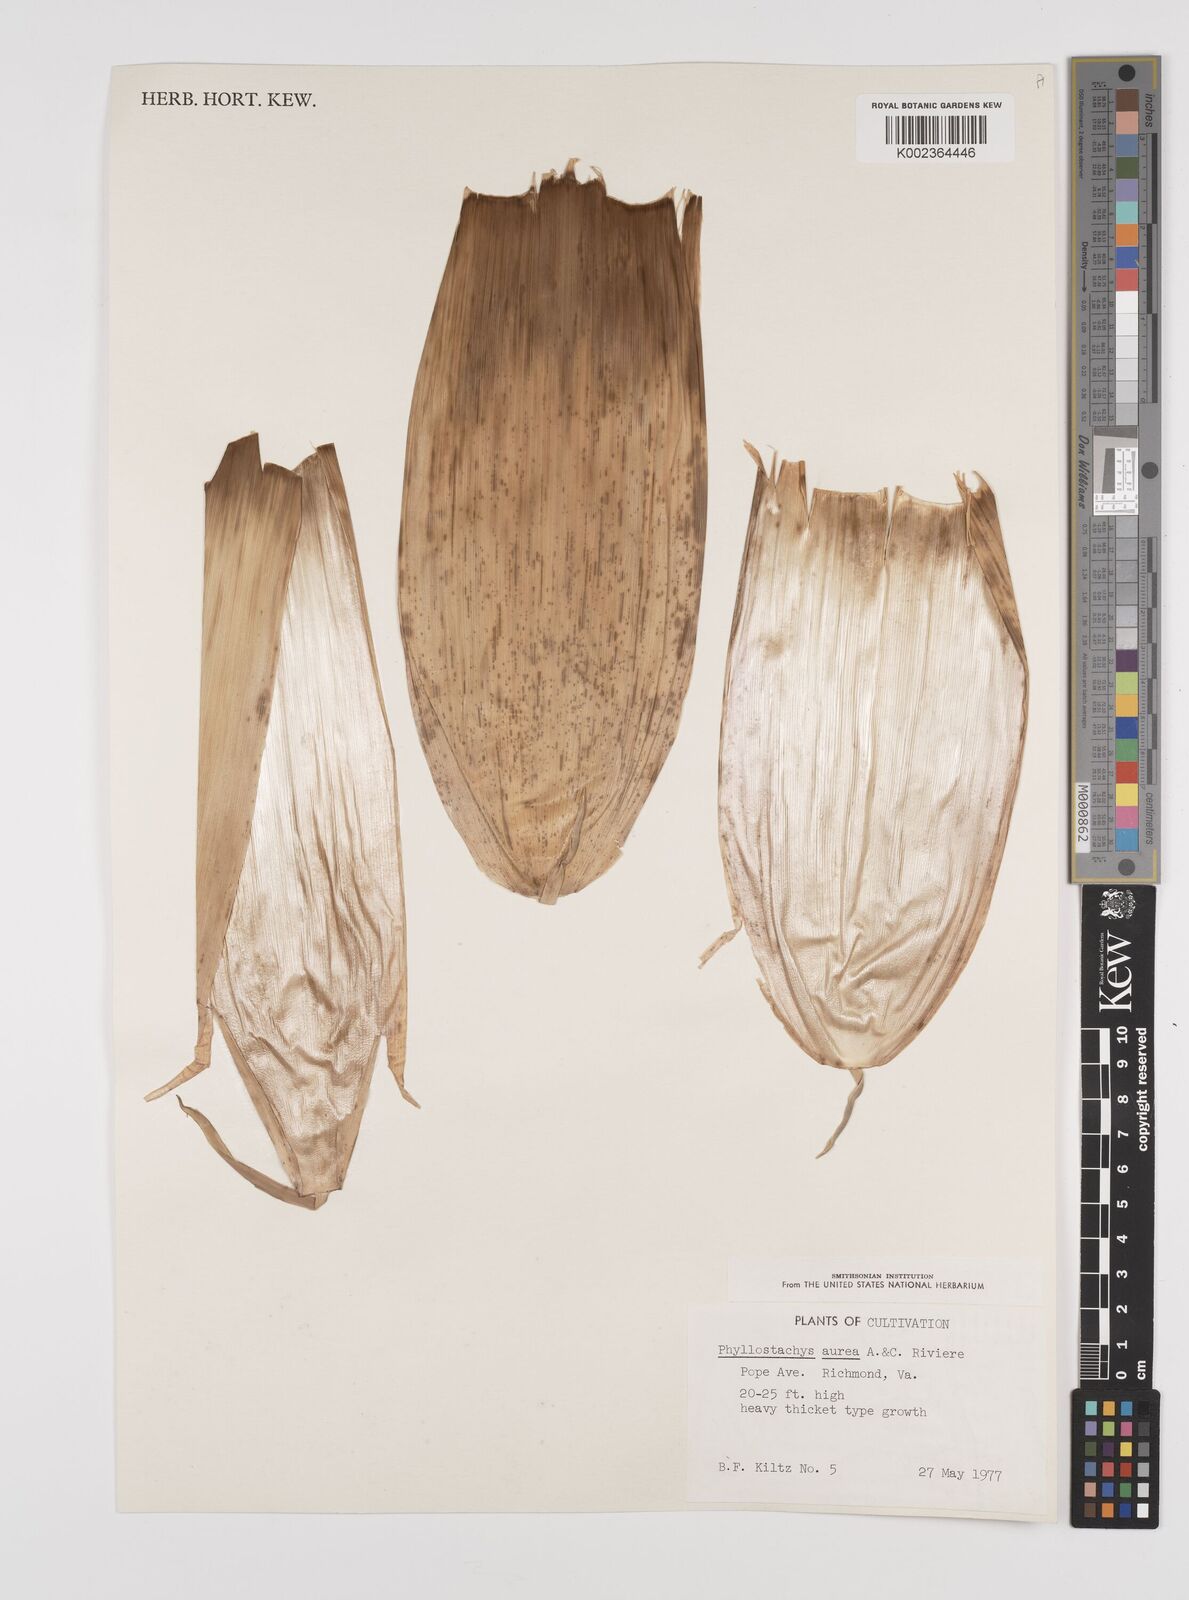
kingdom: Plantae
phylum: Tracheophyta
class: Liliopsida
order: Poales
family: Poaceae
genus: Phyllostachys
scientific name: Phyllostachys aurea
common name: Golden bamboo
